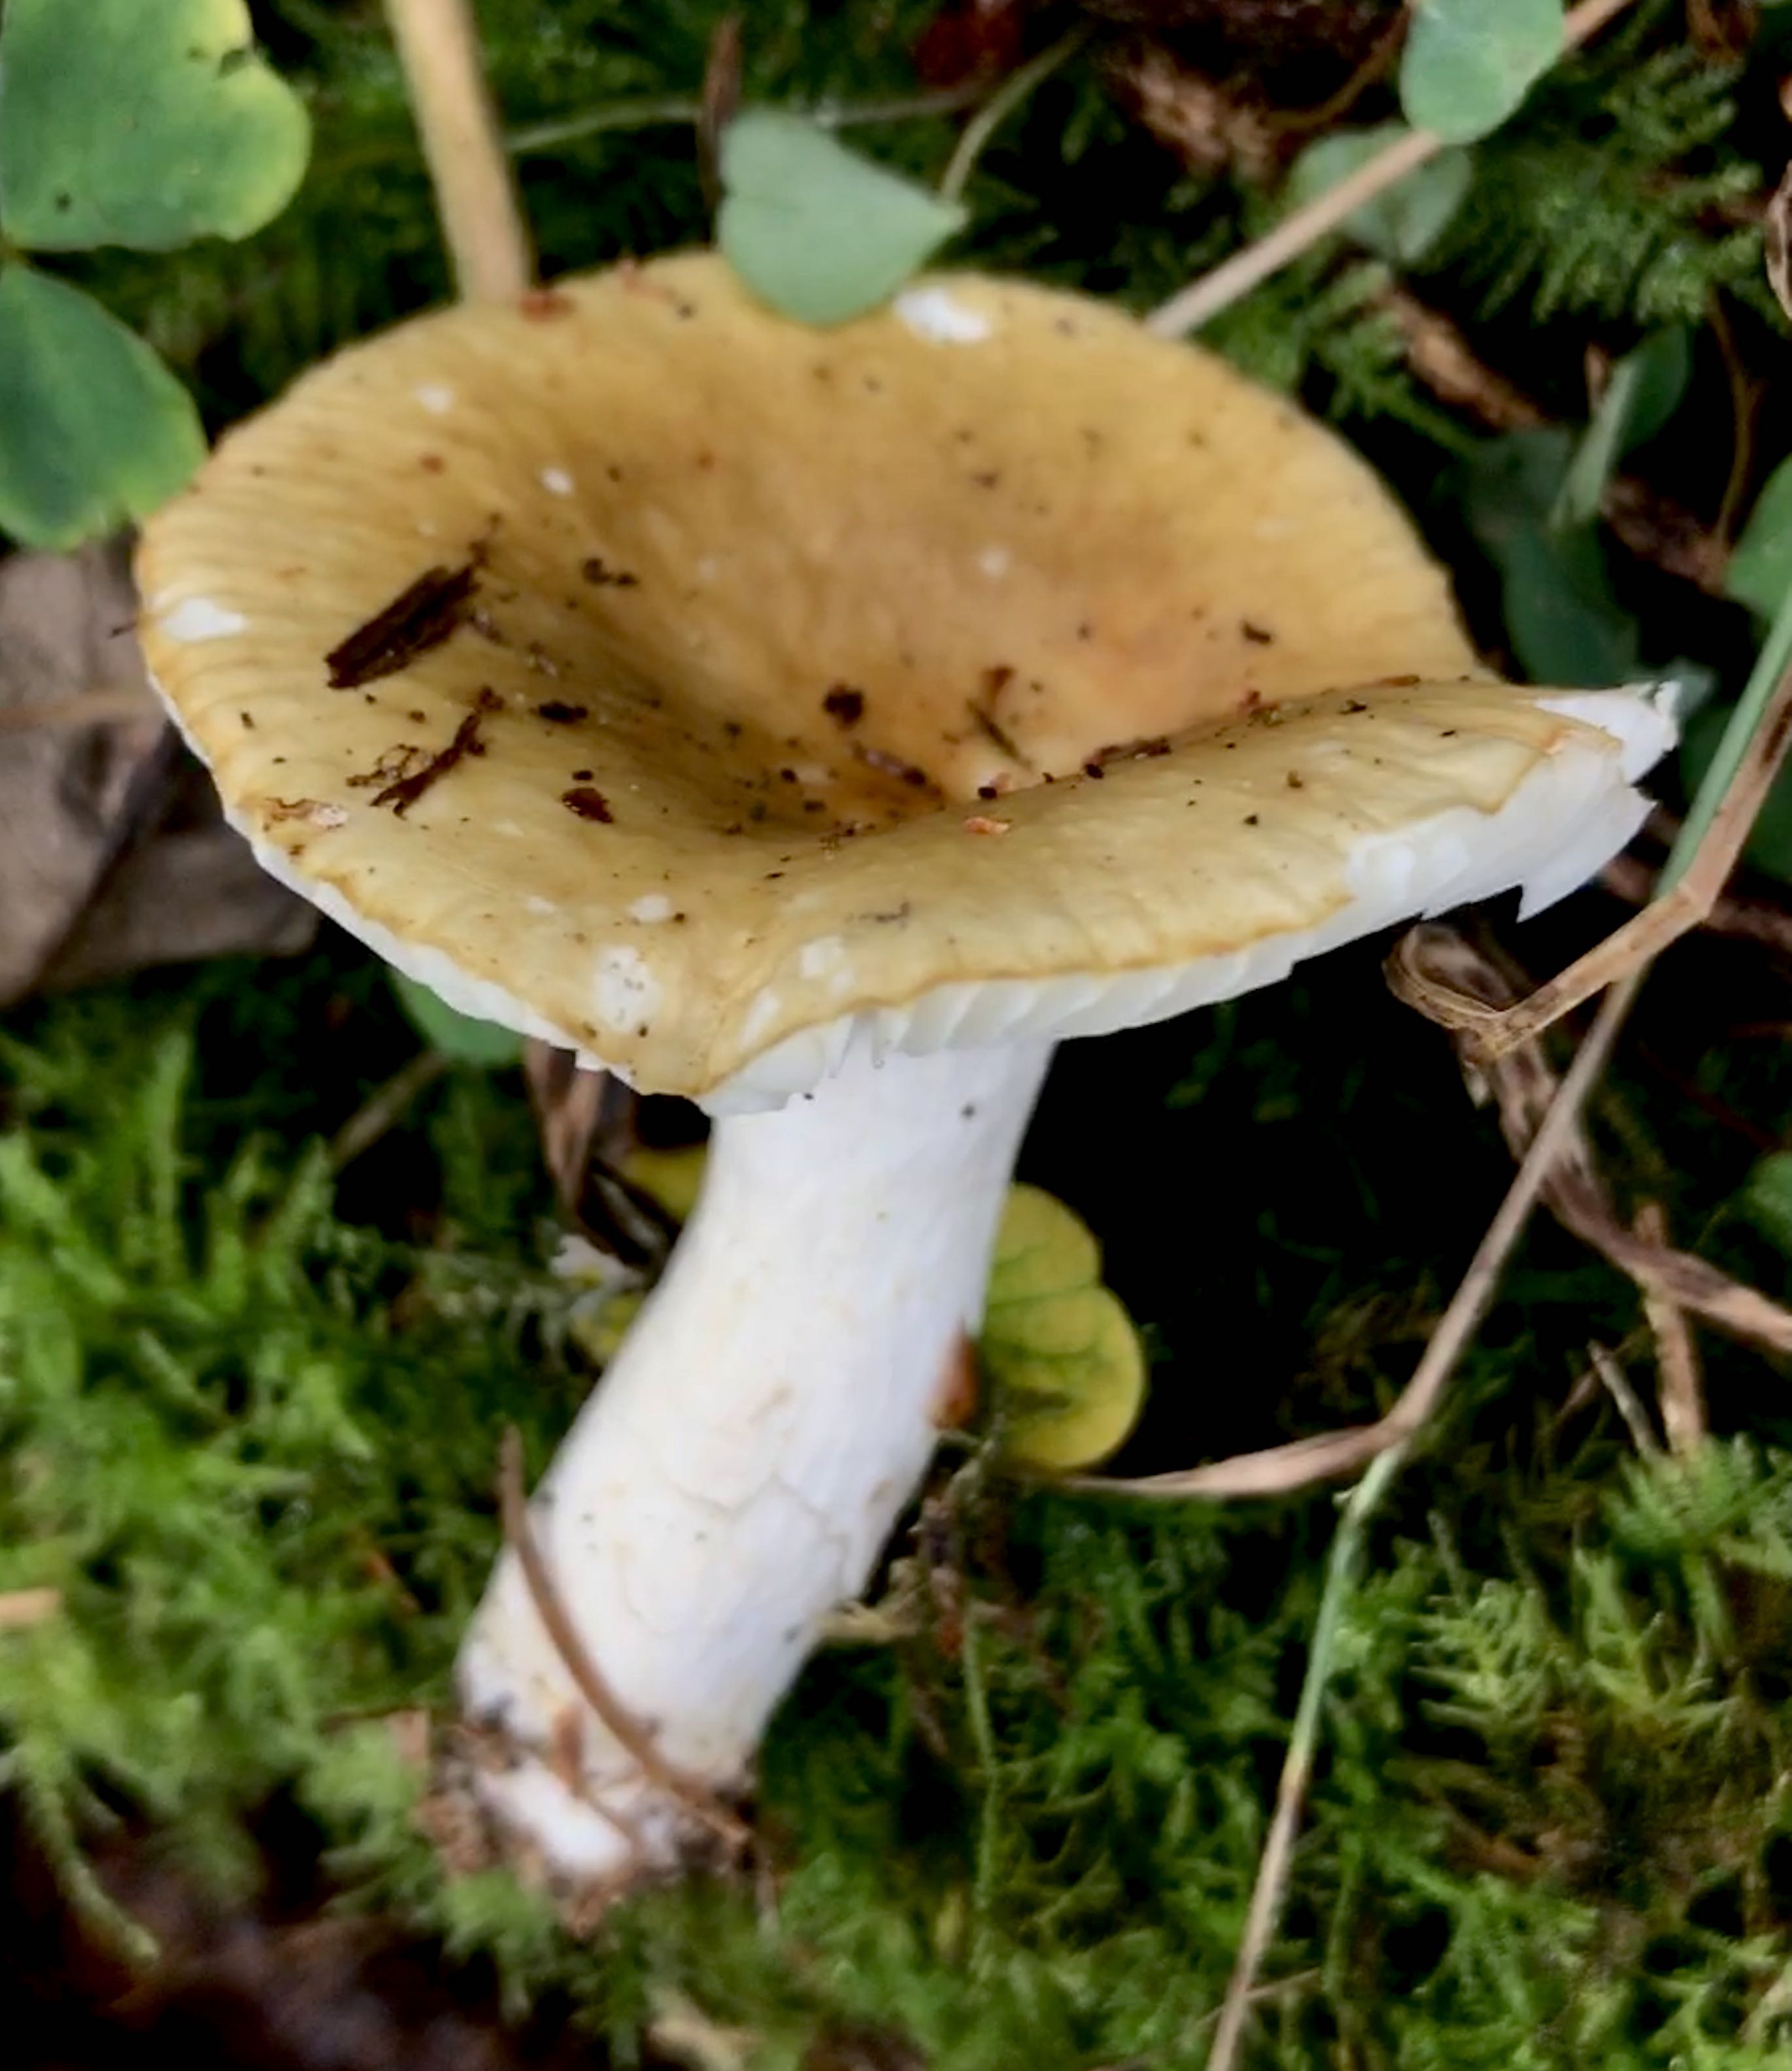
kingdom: Fungi
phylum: Basidiomycota
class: Agaricomycetes
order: Russulales
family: Russulaceae
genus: Russula
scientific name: Russula ochroleuca
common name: okkergul skørhat
